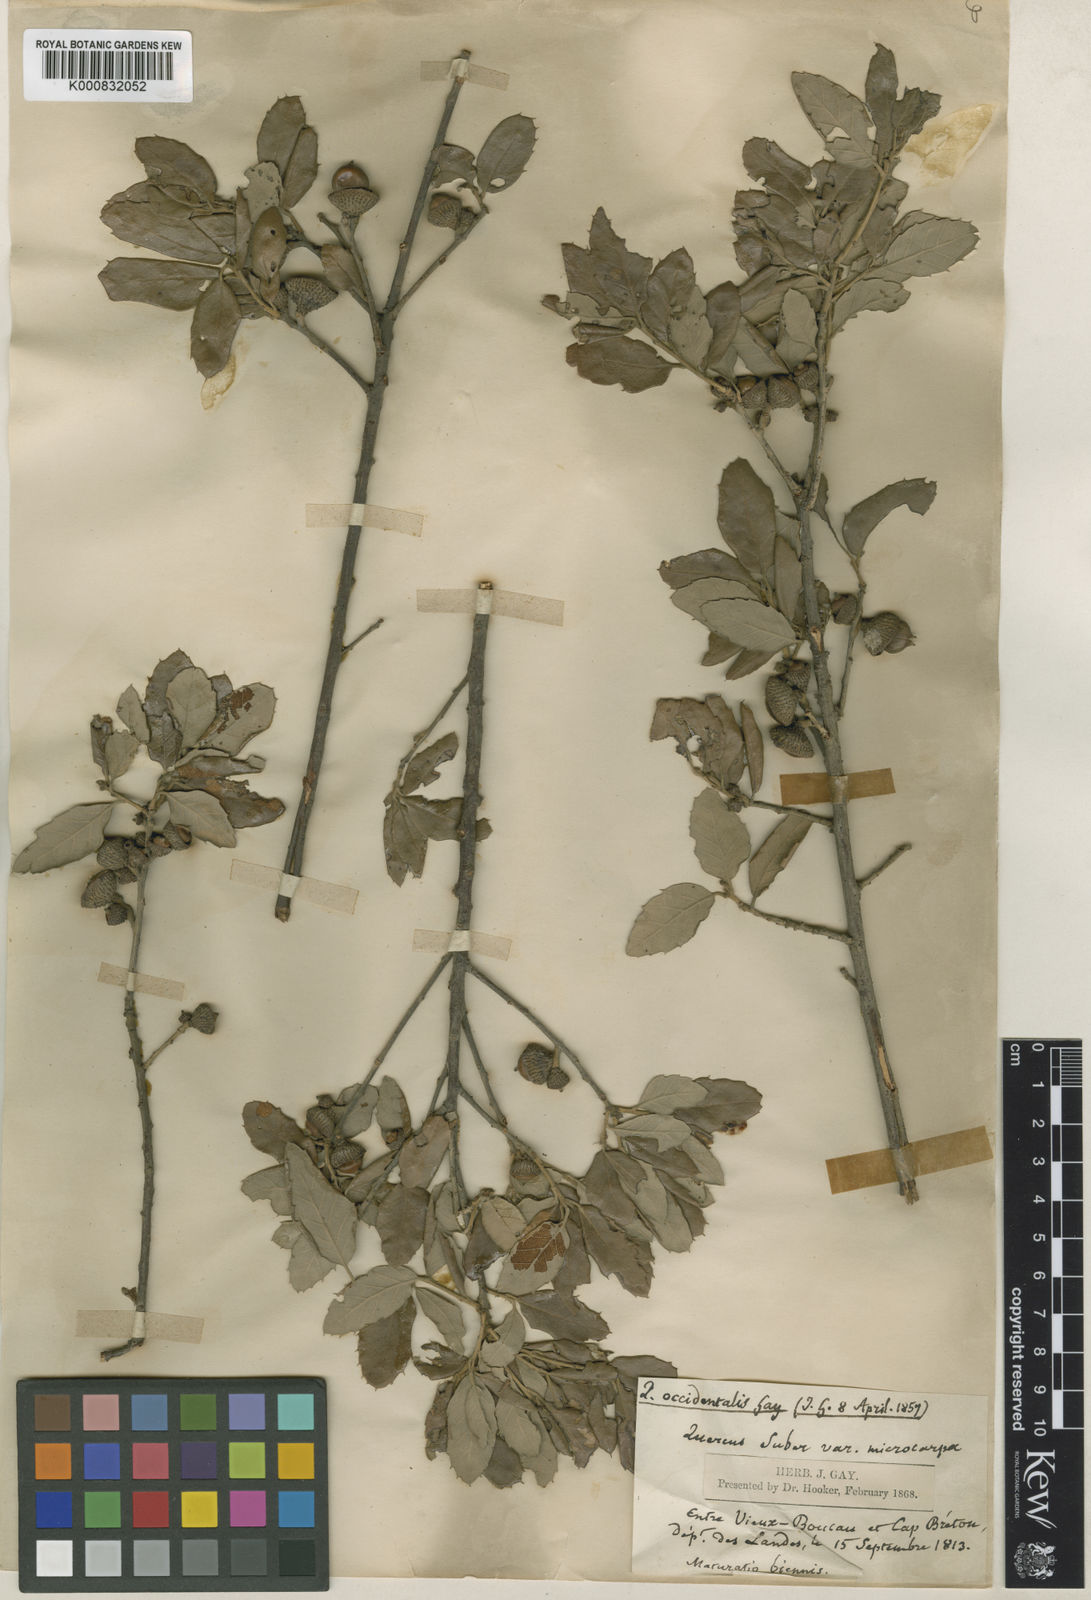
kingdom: Plantae
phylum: Tracheophyta
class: Magnoliopsida
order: Fagales
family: Fagaceae
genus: Quercus
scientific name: Quercus suber
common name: Cork oak
